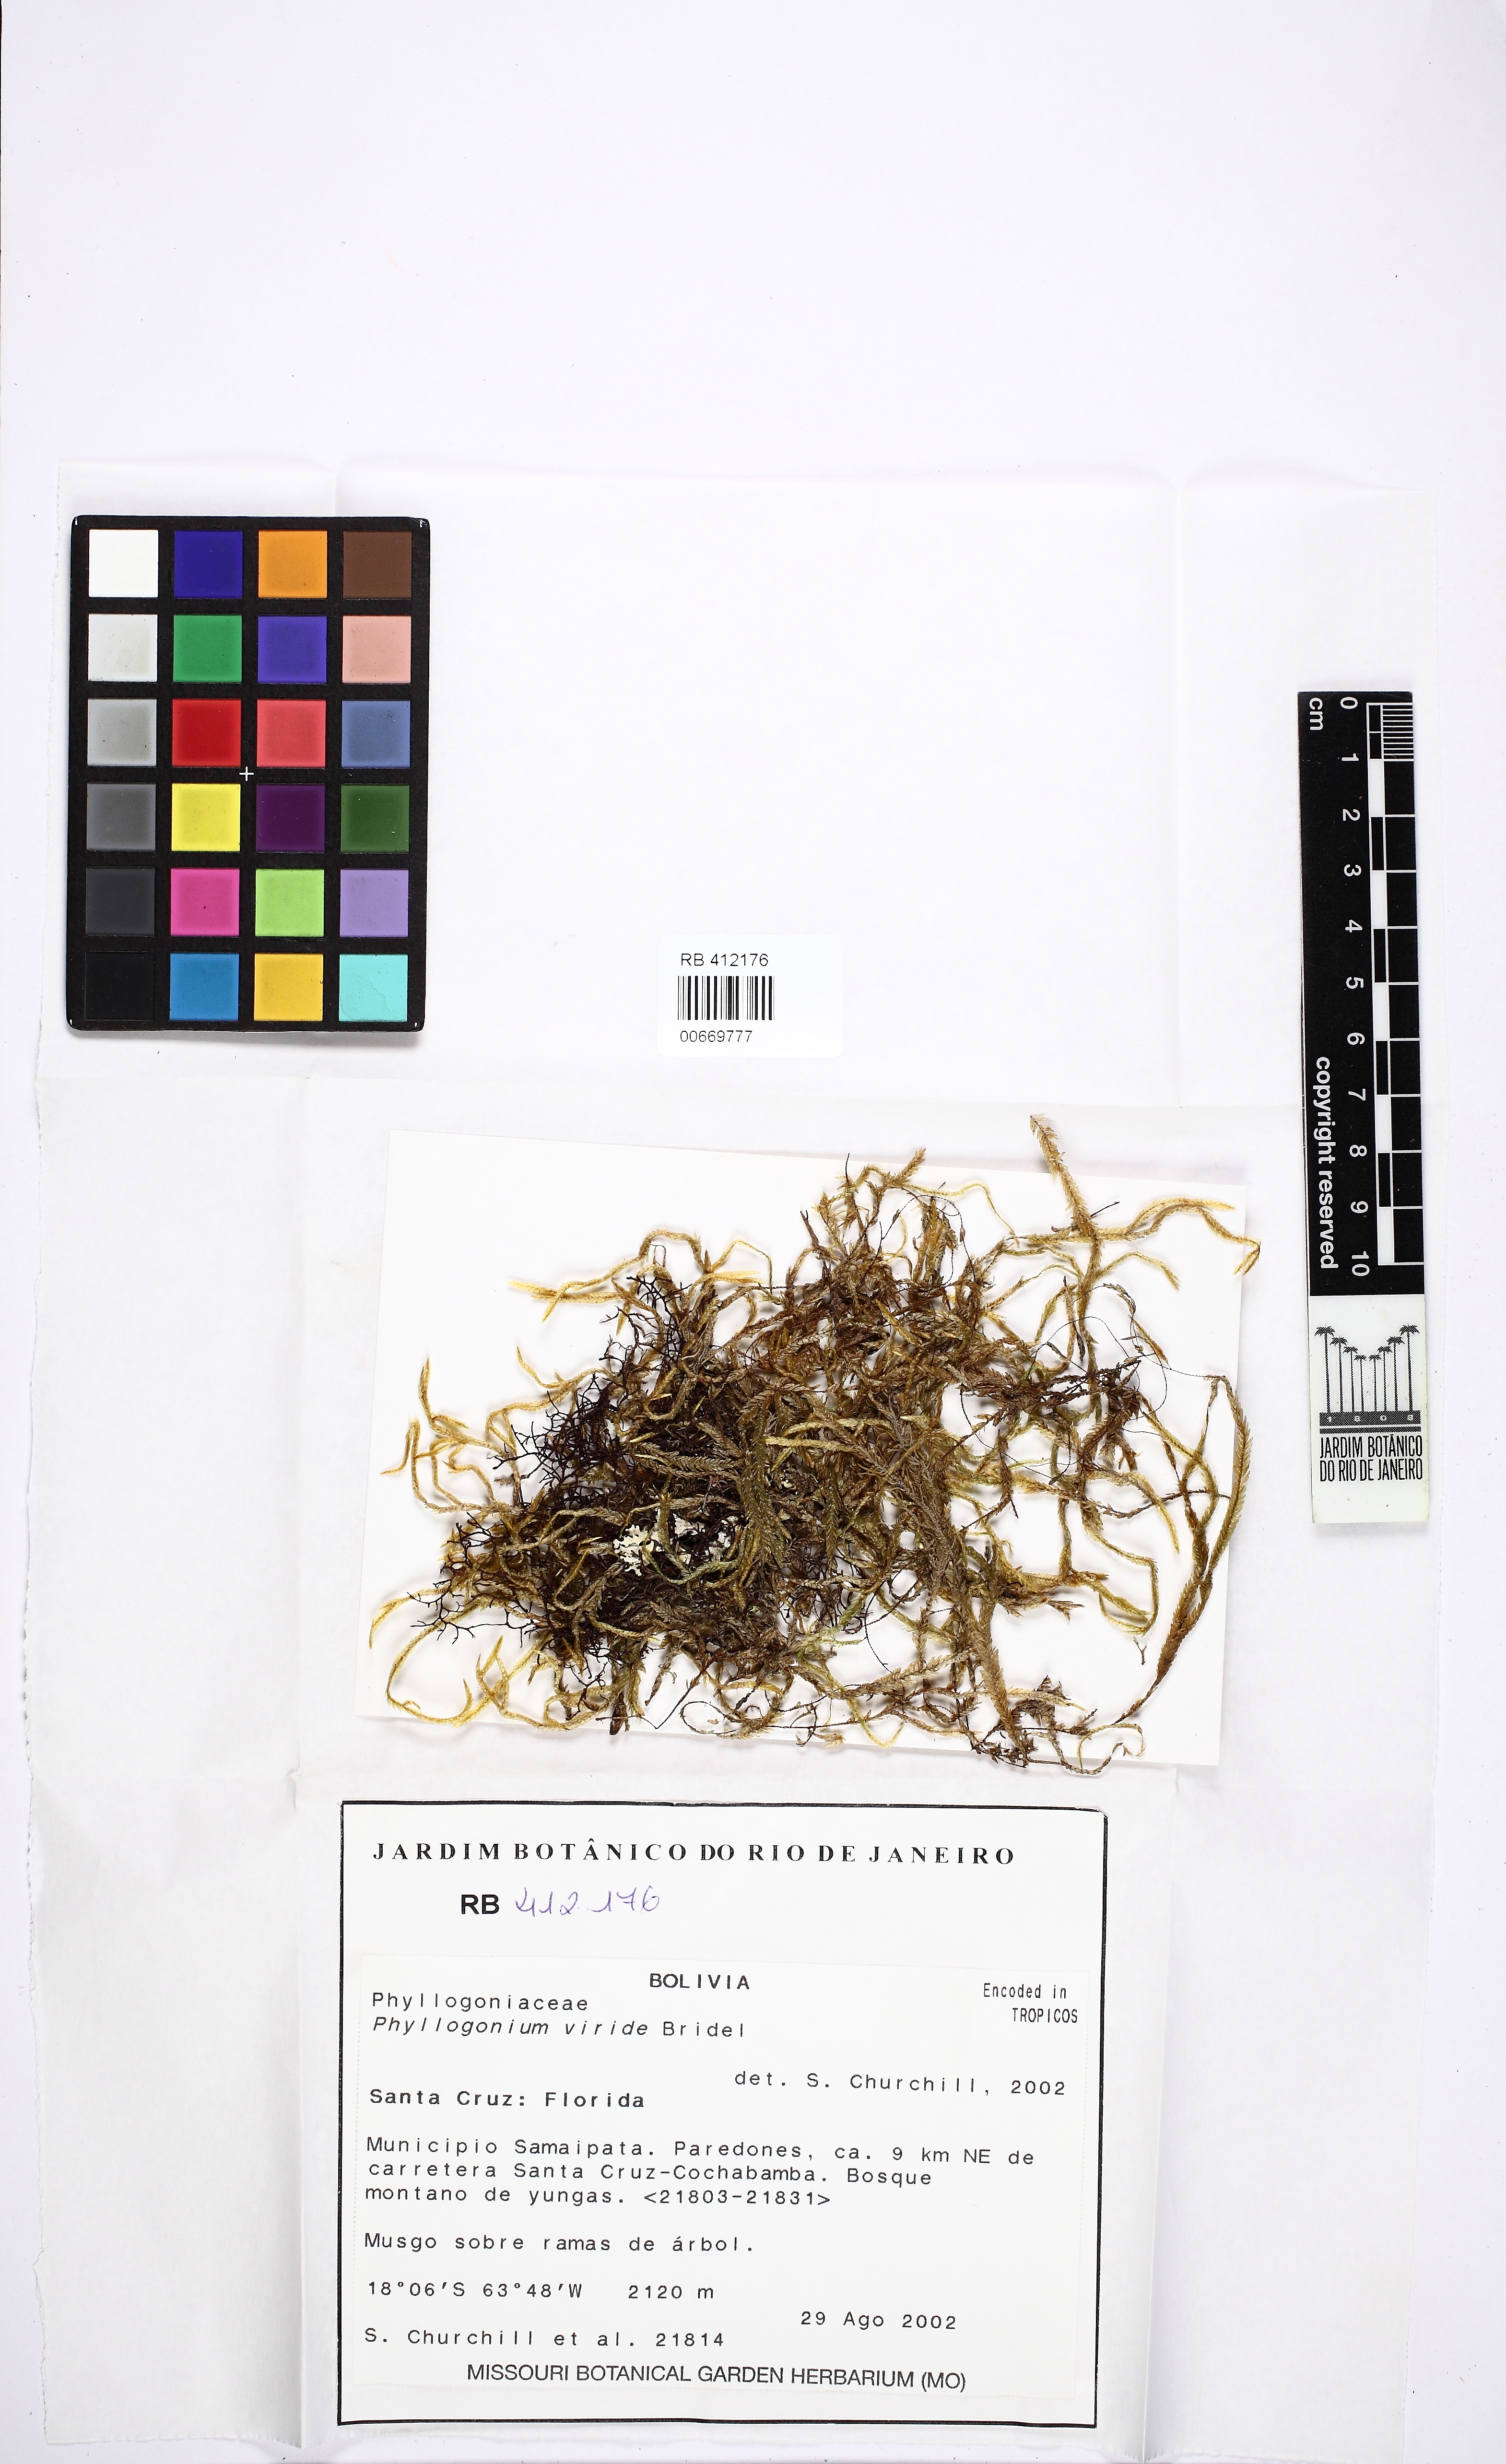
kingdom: Plantae
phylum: Bryophyta
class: Bryopsida
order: Hypnales
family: Phyllogoniaceae
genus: Phyllogonium
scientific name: Phyllogonium viride
